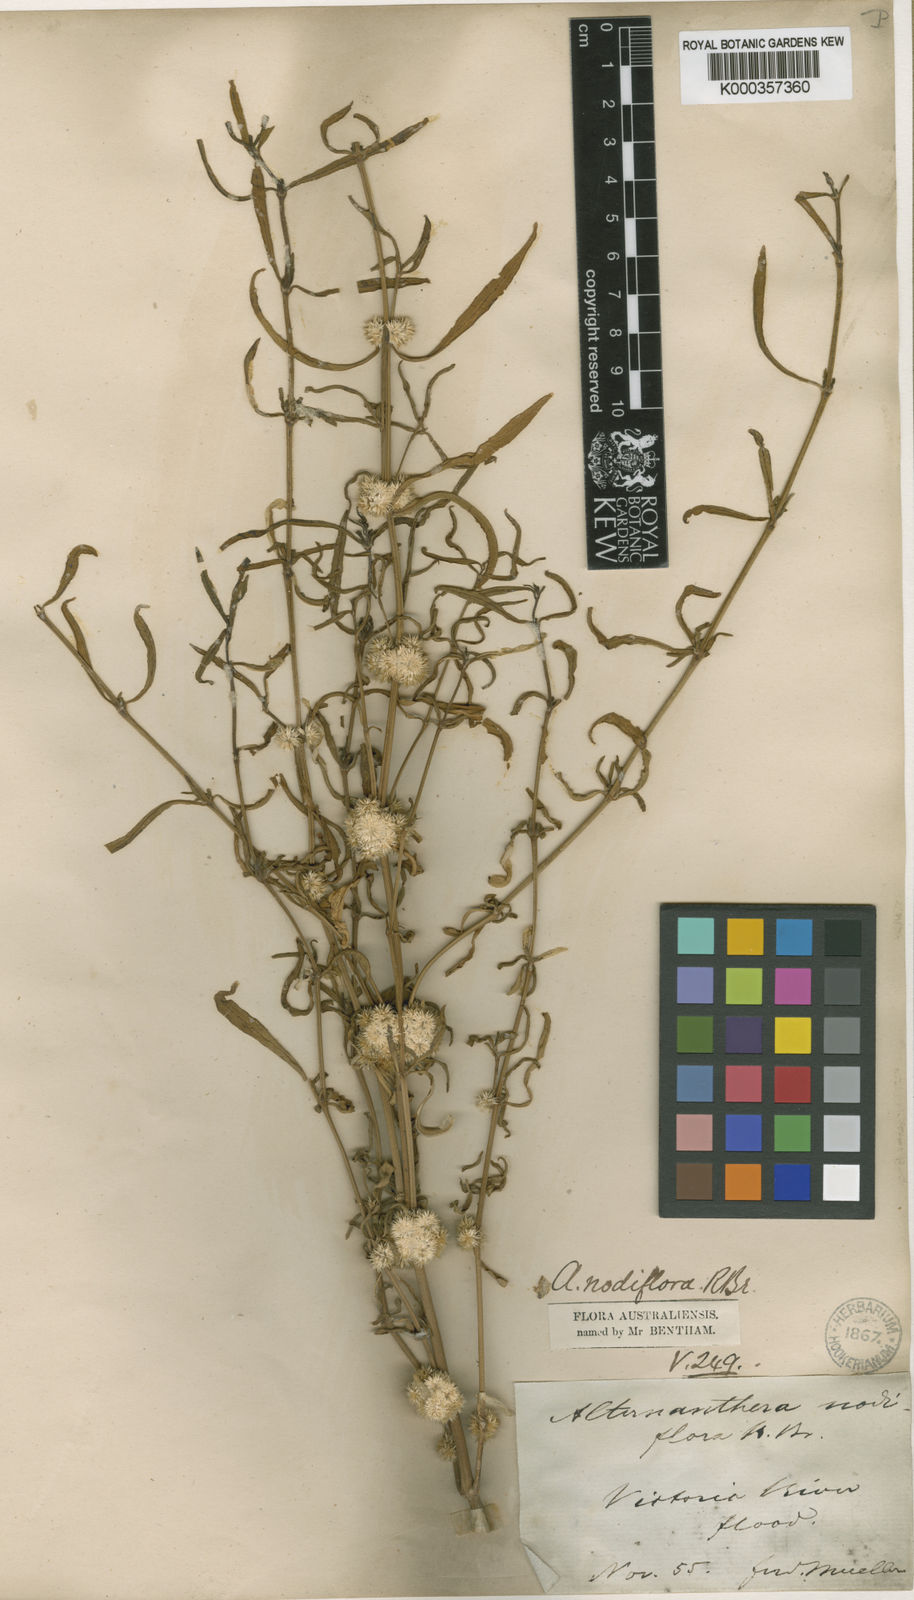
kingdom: Plantae
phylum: Tracheophyta
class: Magnoliopsida
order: Caryophyllales
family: Amaranthaceae
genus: Alternanthera
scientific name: Alternanthera sessilis
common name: Sessile joyweed
